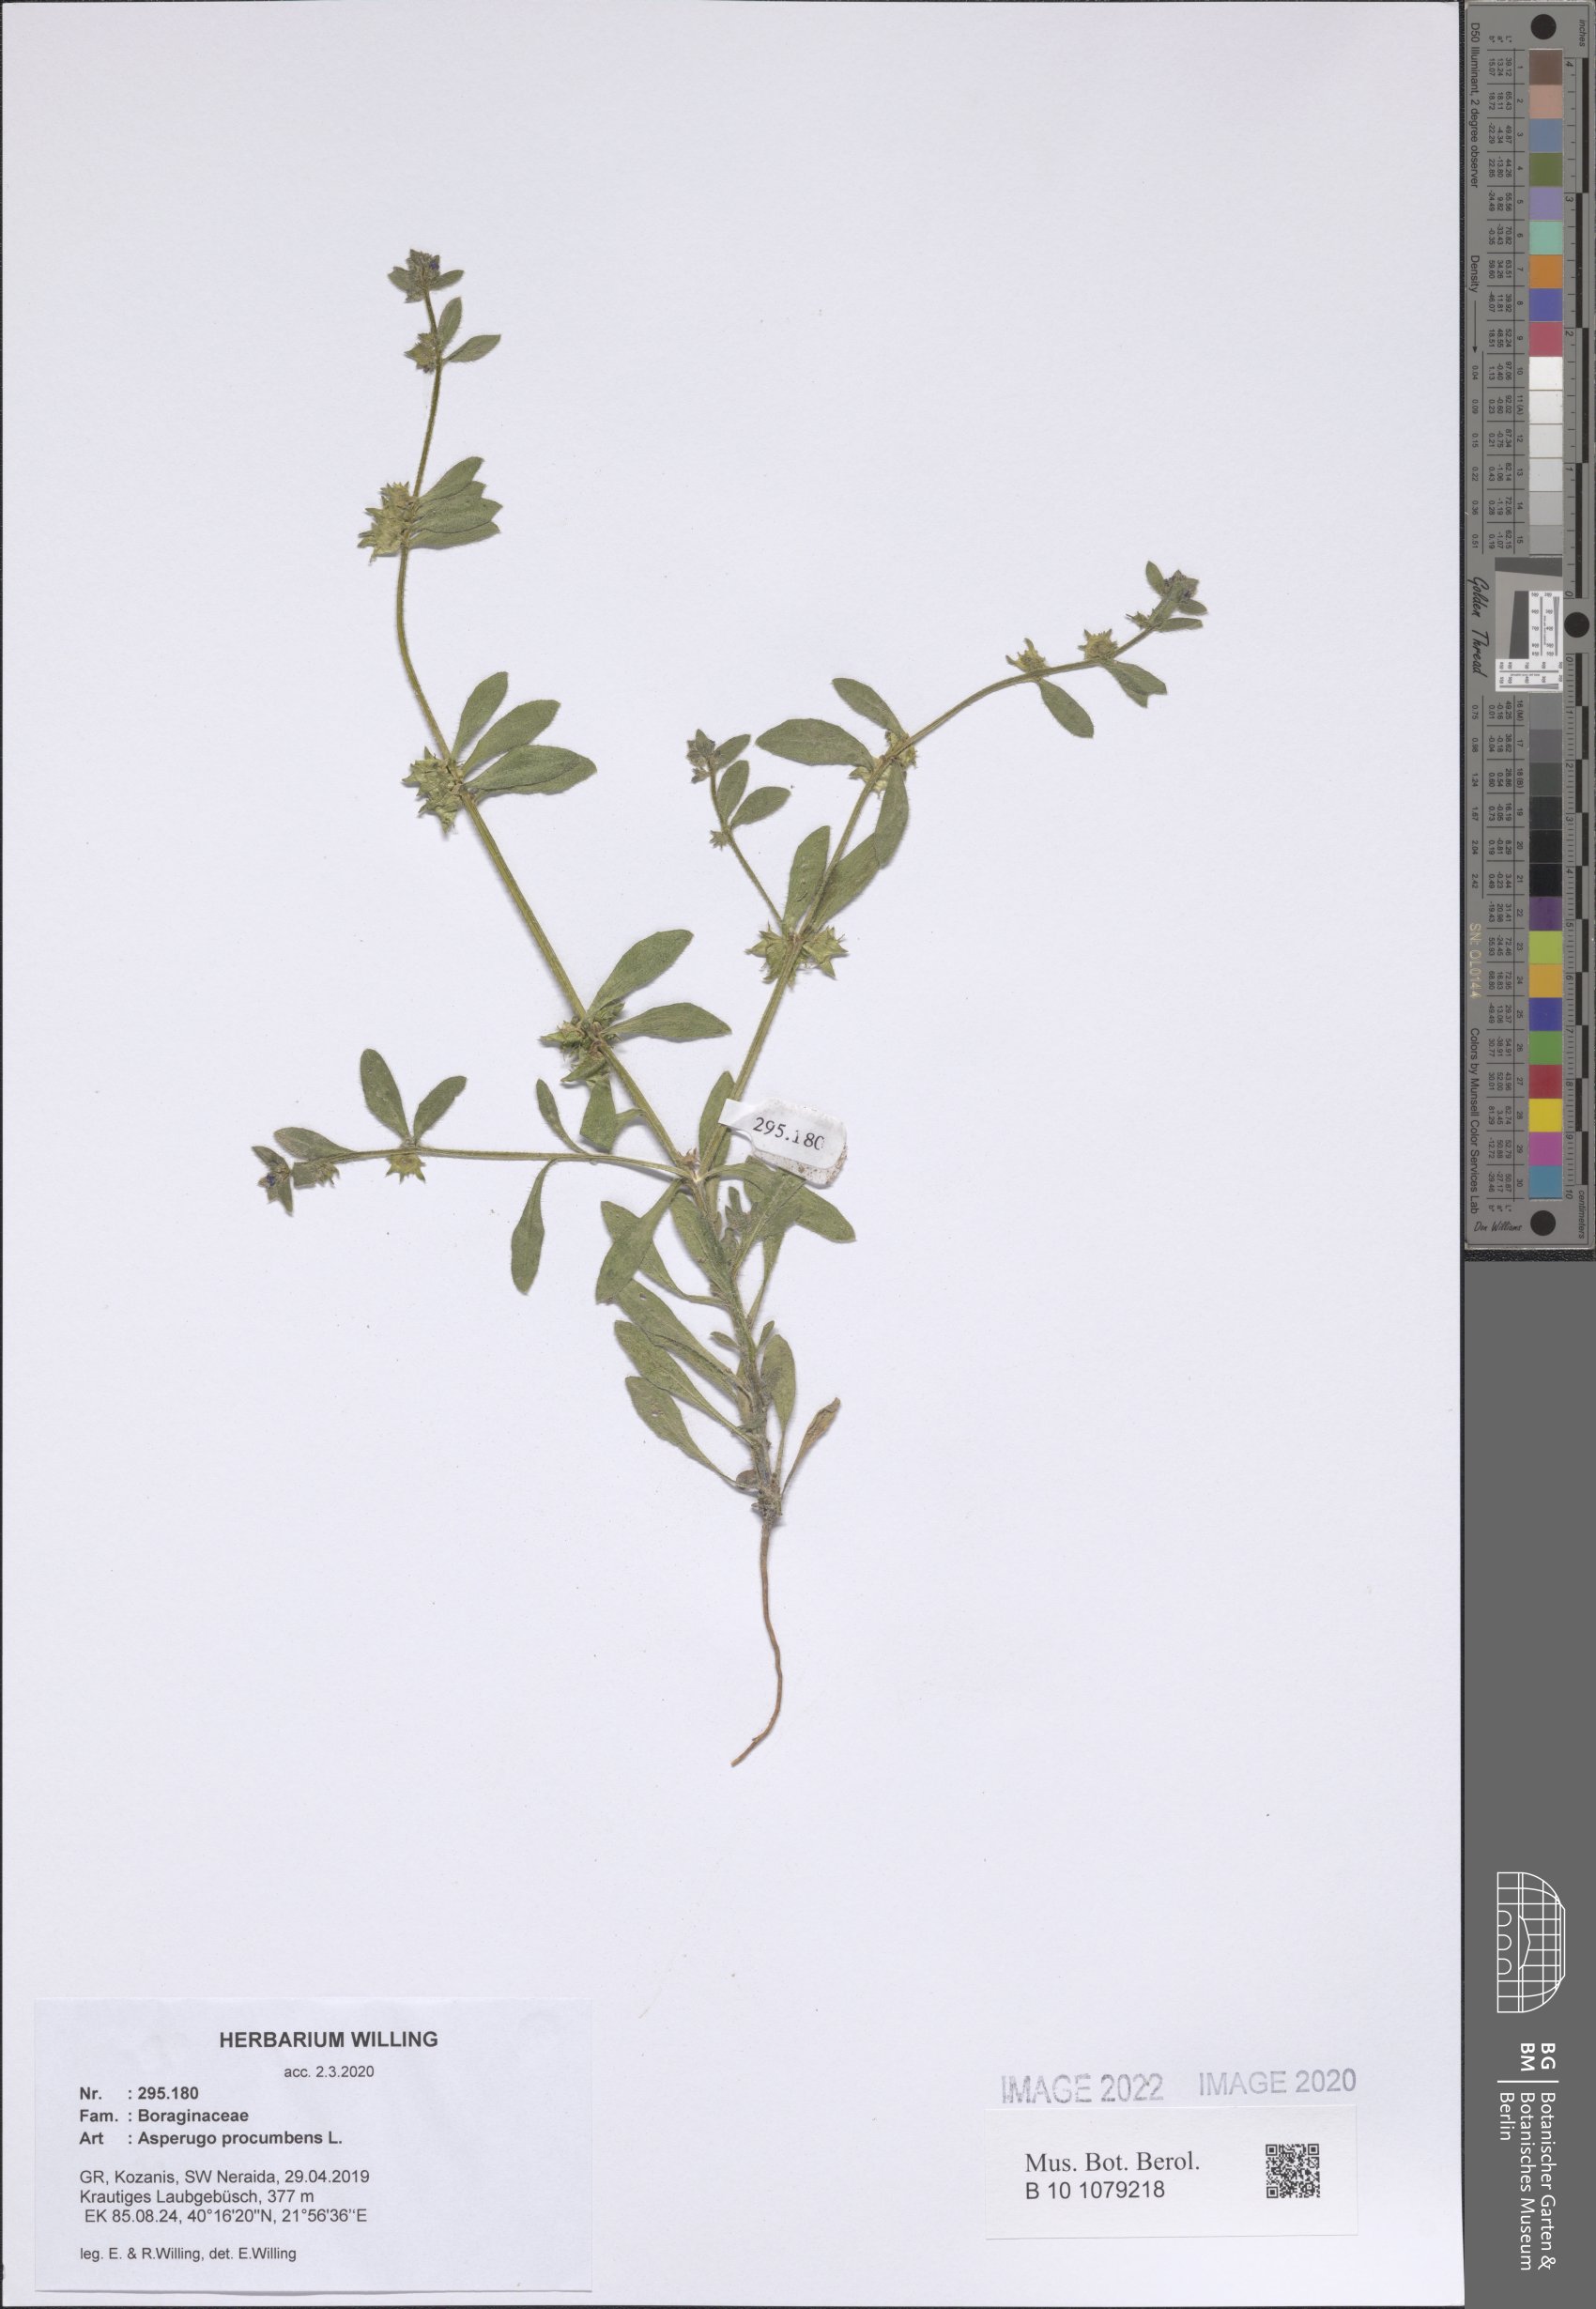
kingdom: Plantae
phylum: Tracheophyta
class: Magnoliopsida
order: Boraginales
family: Boraginaceae
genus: Asperugo
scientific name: Asperugo procumbens
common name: Madwort
